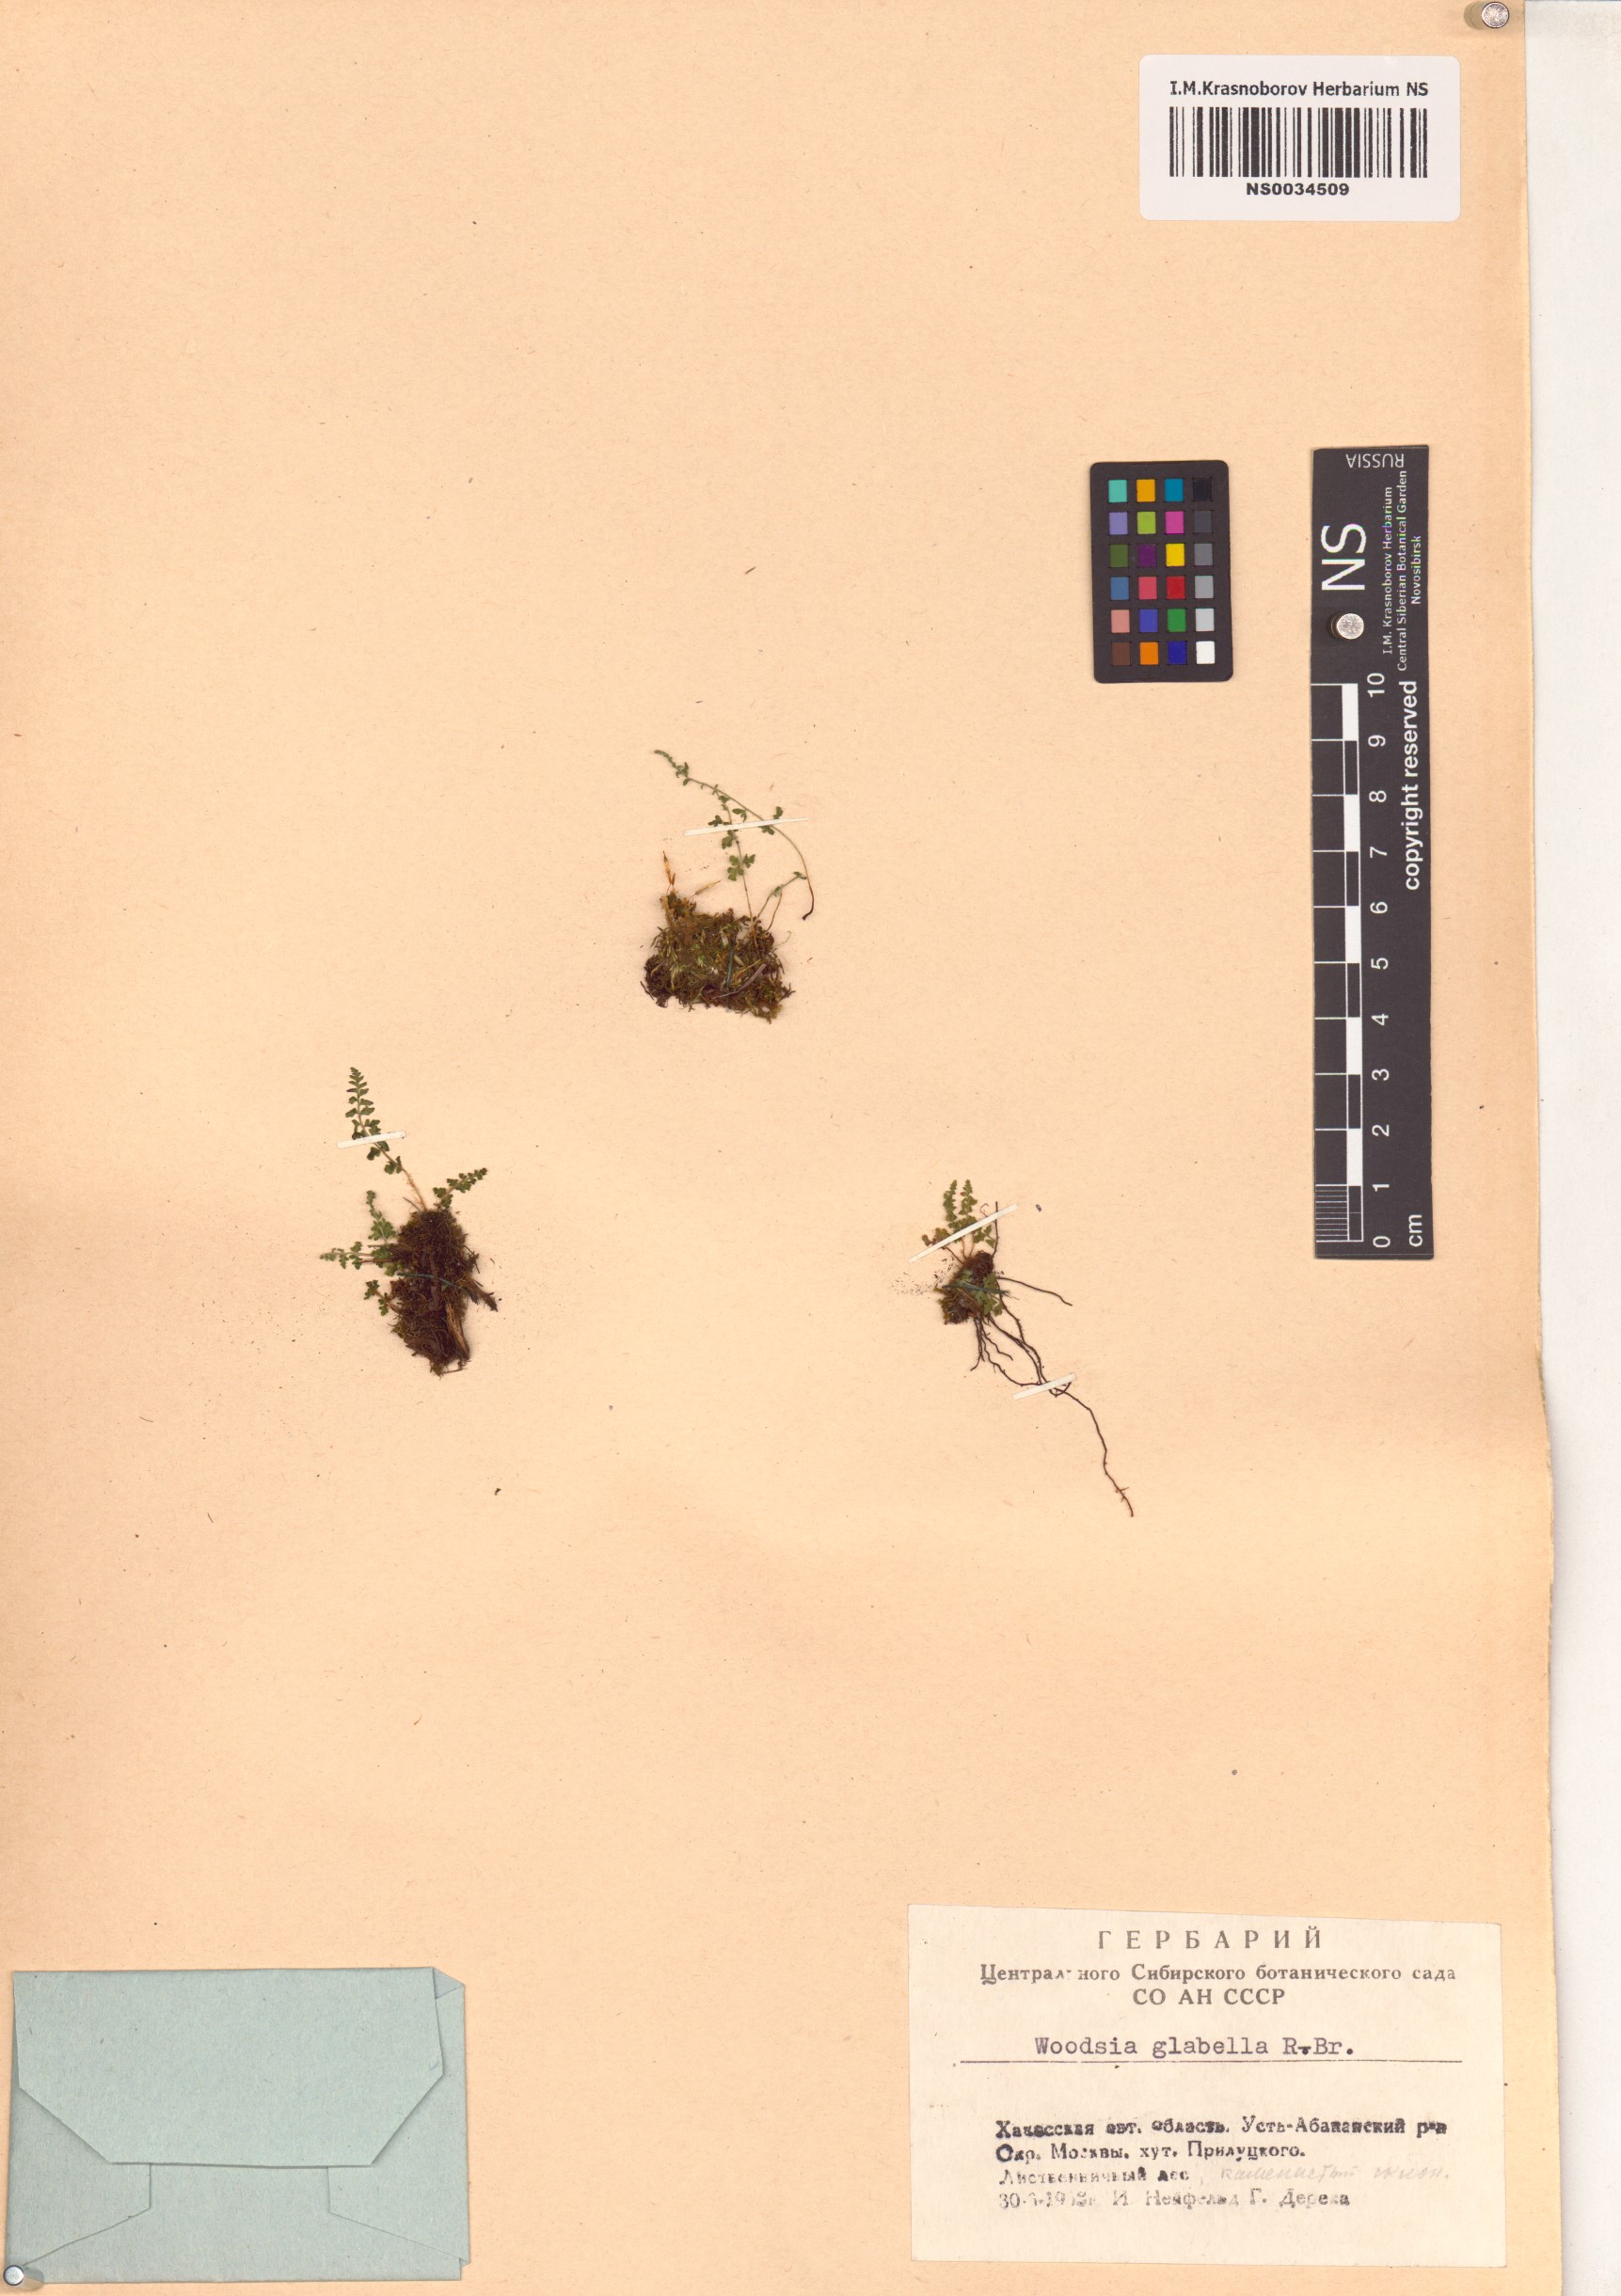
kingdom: Plantae
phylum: Tracheophyta
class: Polypodiopsida
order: Polypodiales
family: Woodsiaceae
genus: Woodsia
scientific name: Woodsia glabella
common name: Smooth woodsia
